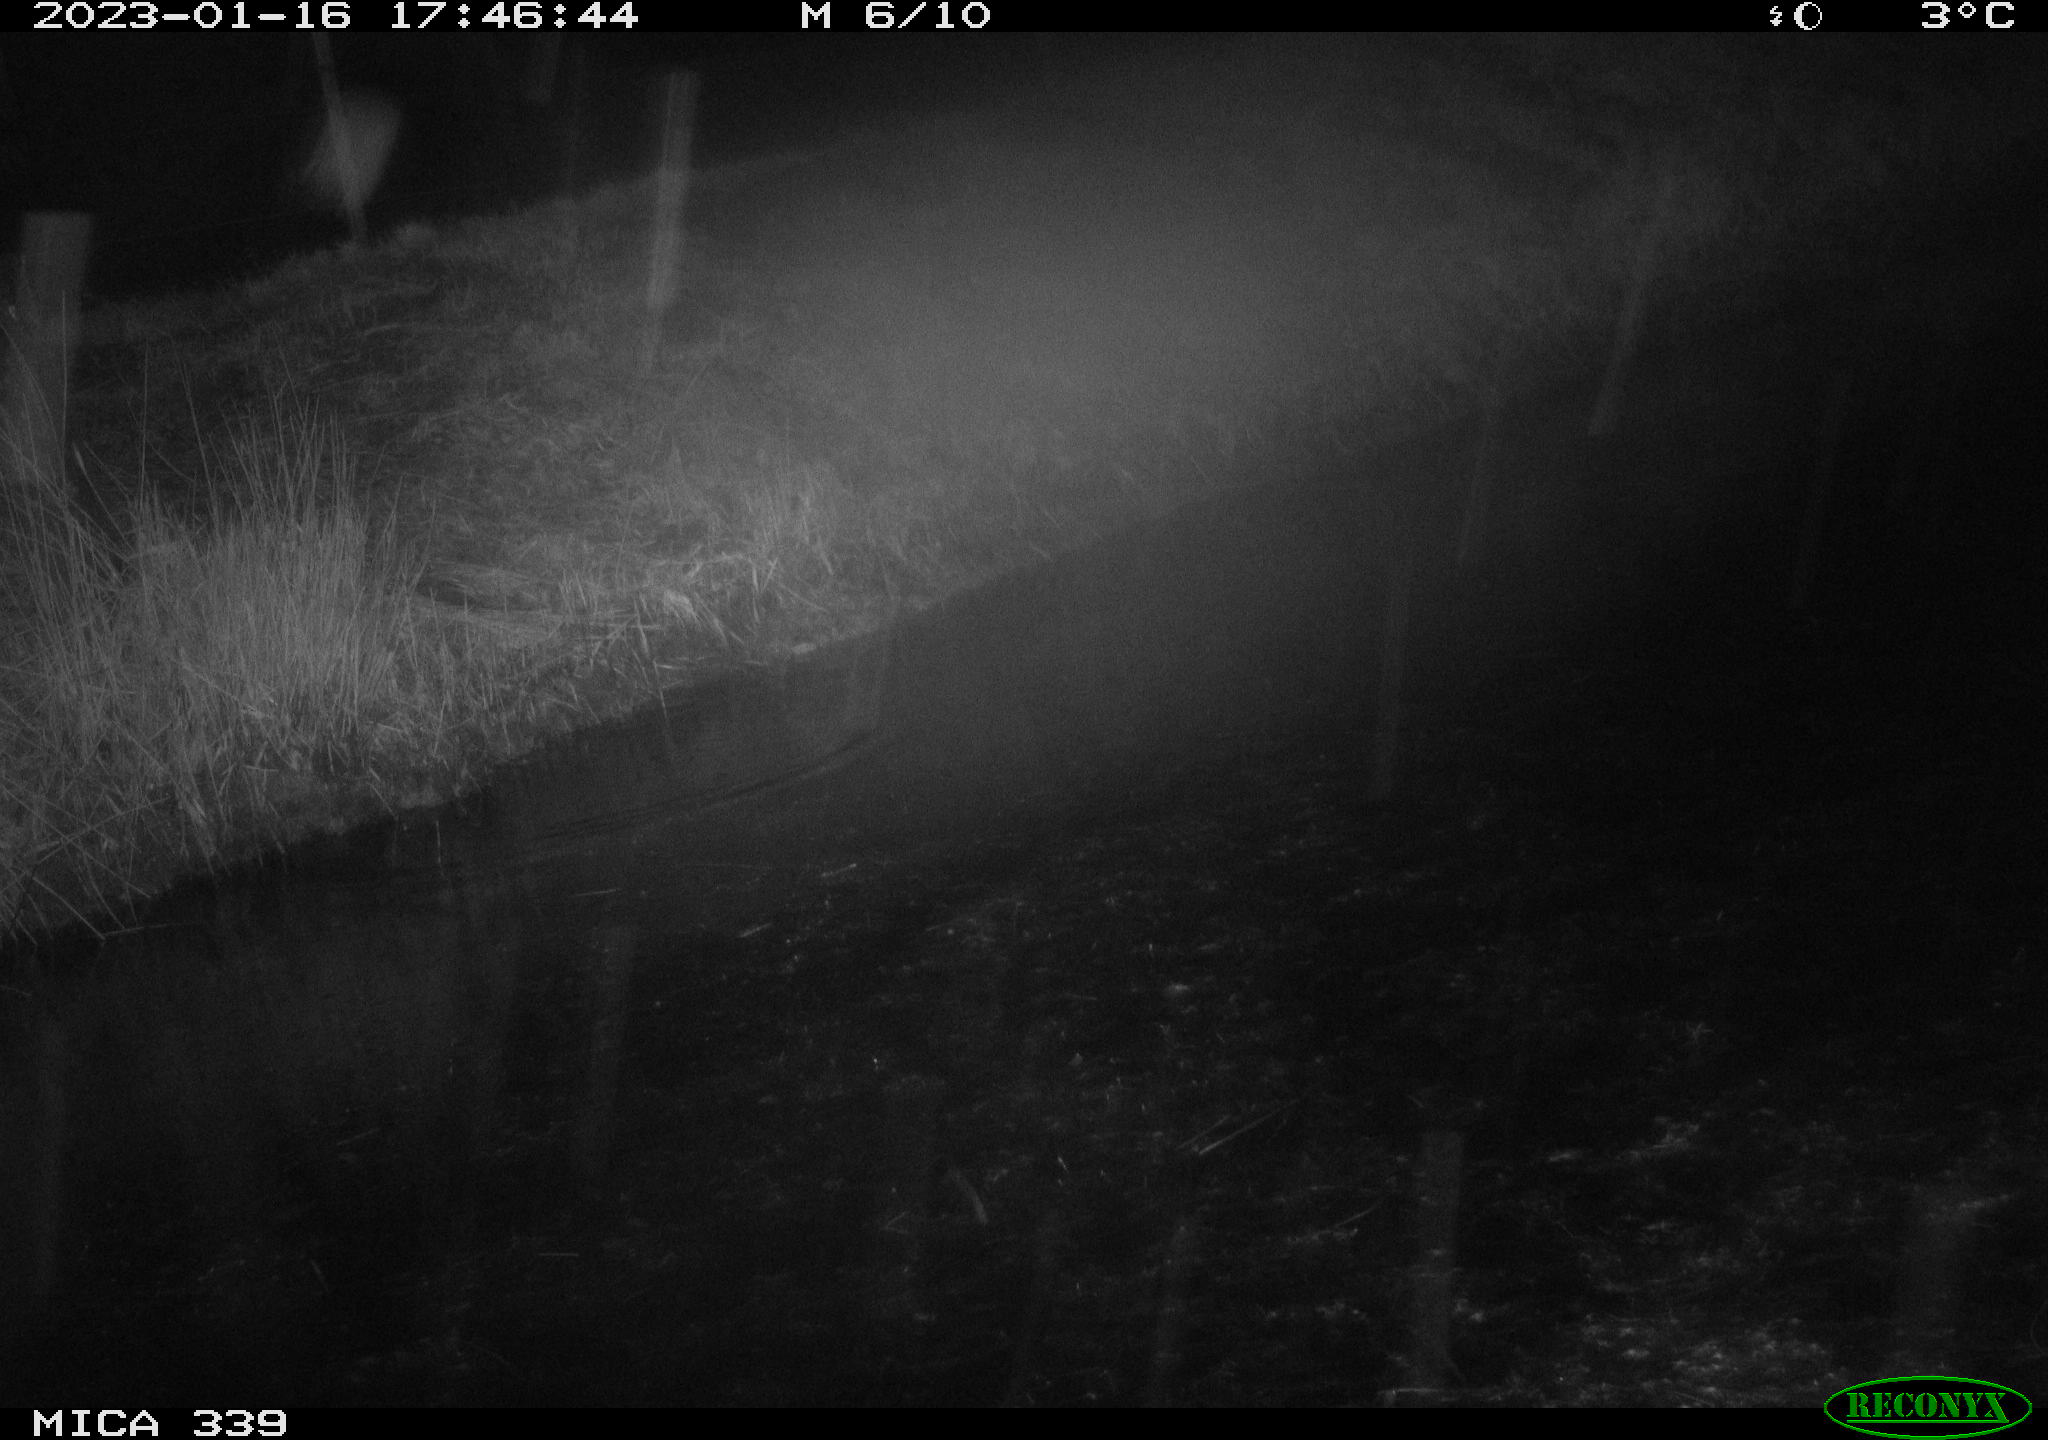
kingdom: Animalia
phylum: Chordata
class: Aves
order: Pelecaniformes
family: Ardeidae
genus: Ardea
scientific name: Ardea cinerea
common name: Grey heron
